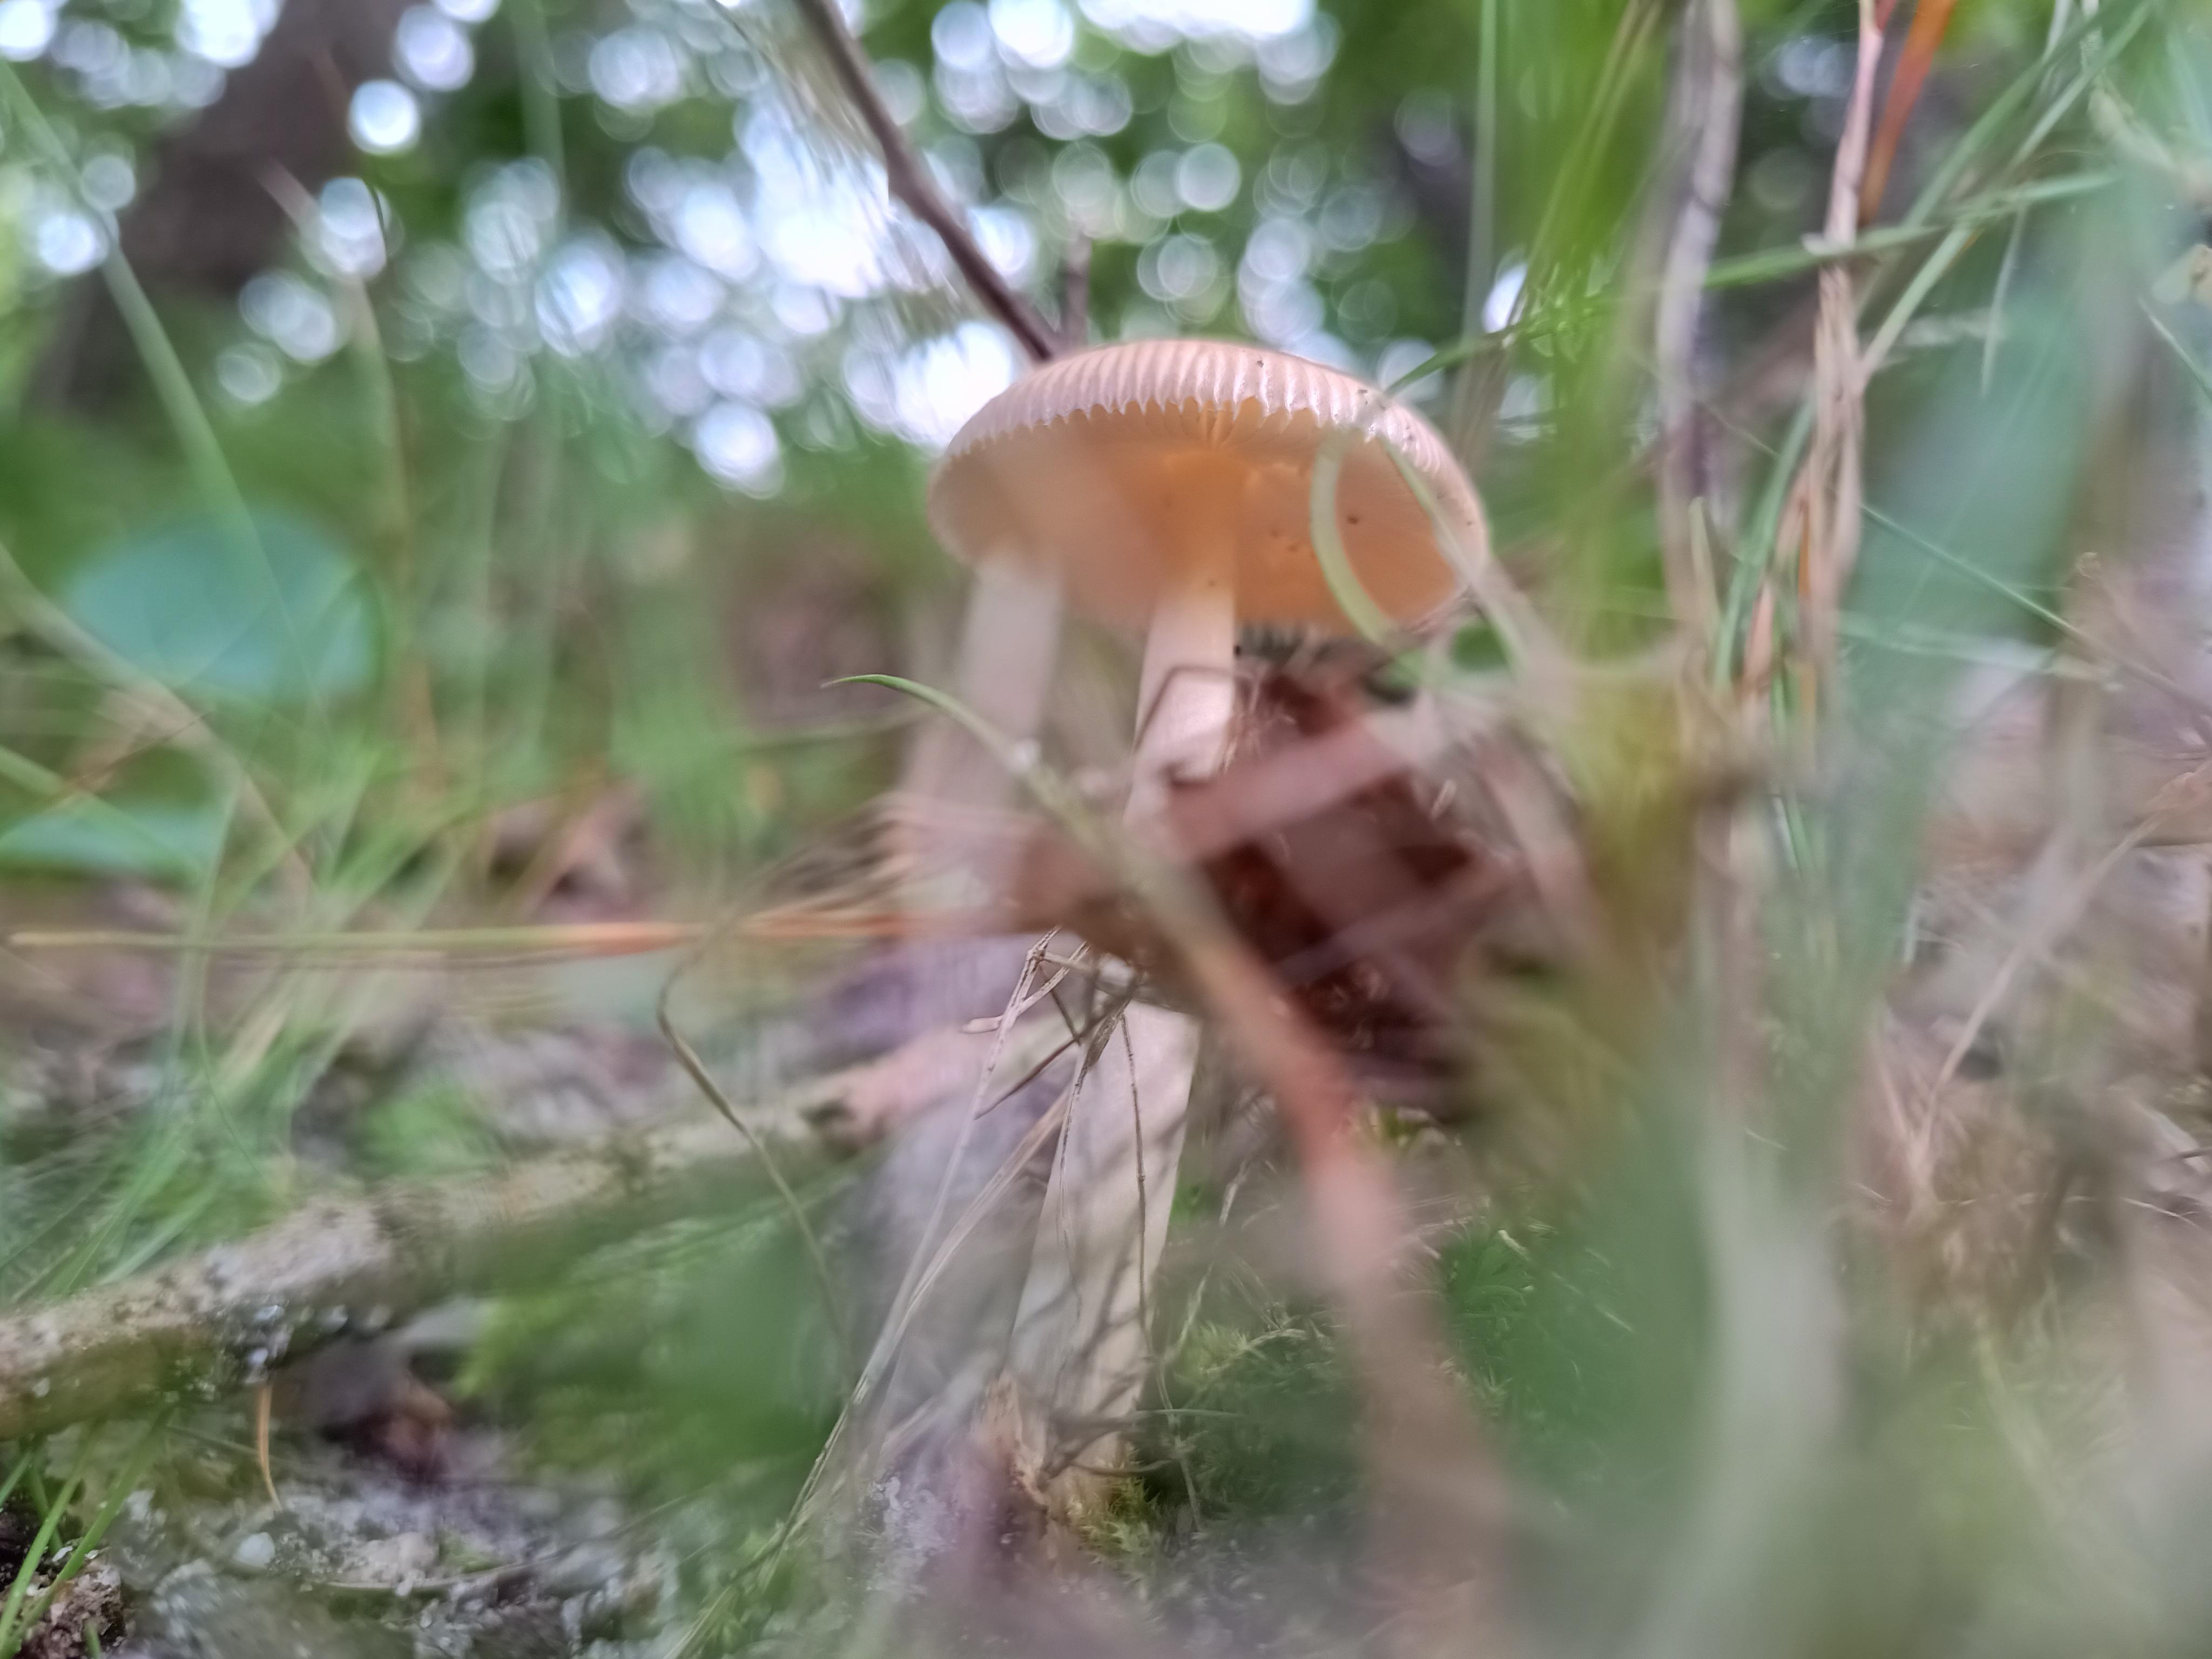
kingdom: Fungi
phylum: Basidiomycota
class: Agaricomycetes
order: Agaricales
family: Amanitaceae
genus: Amanita
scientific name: Amanita fulva
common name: brun kam-fluesvamp
